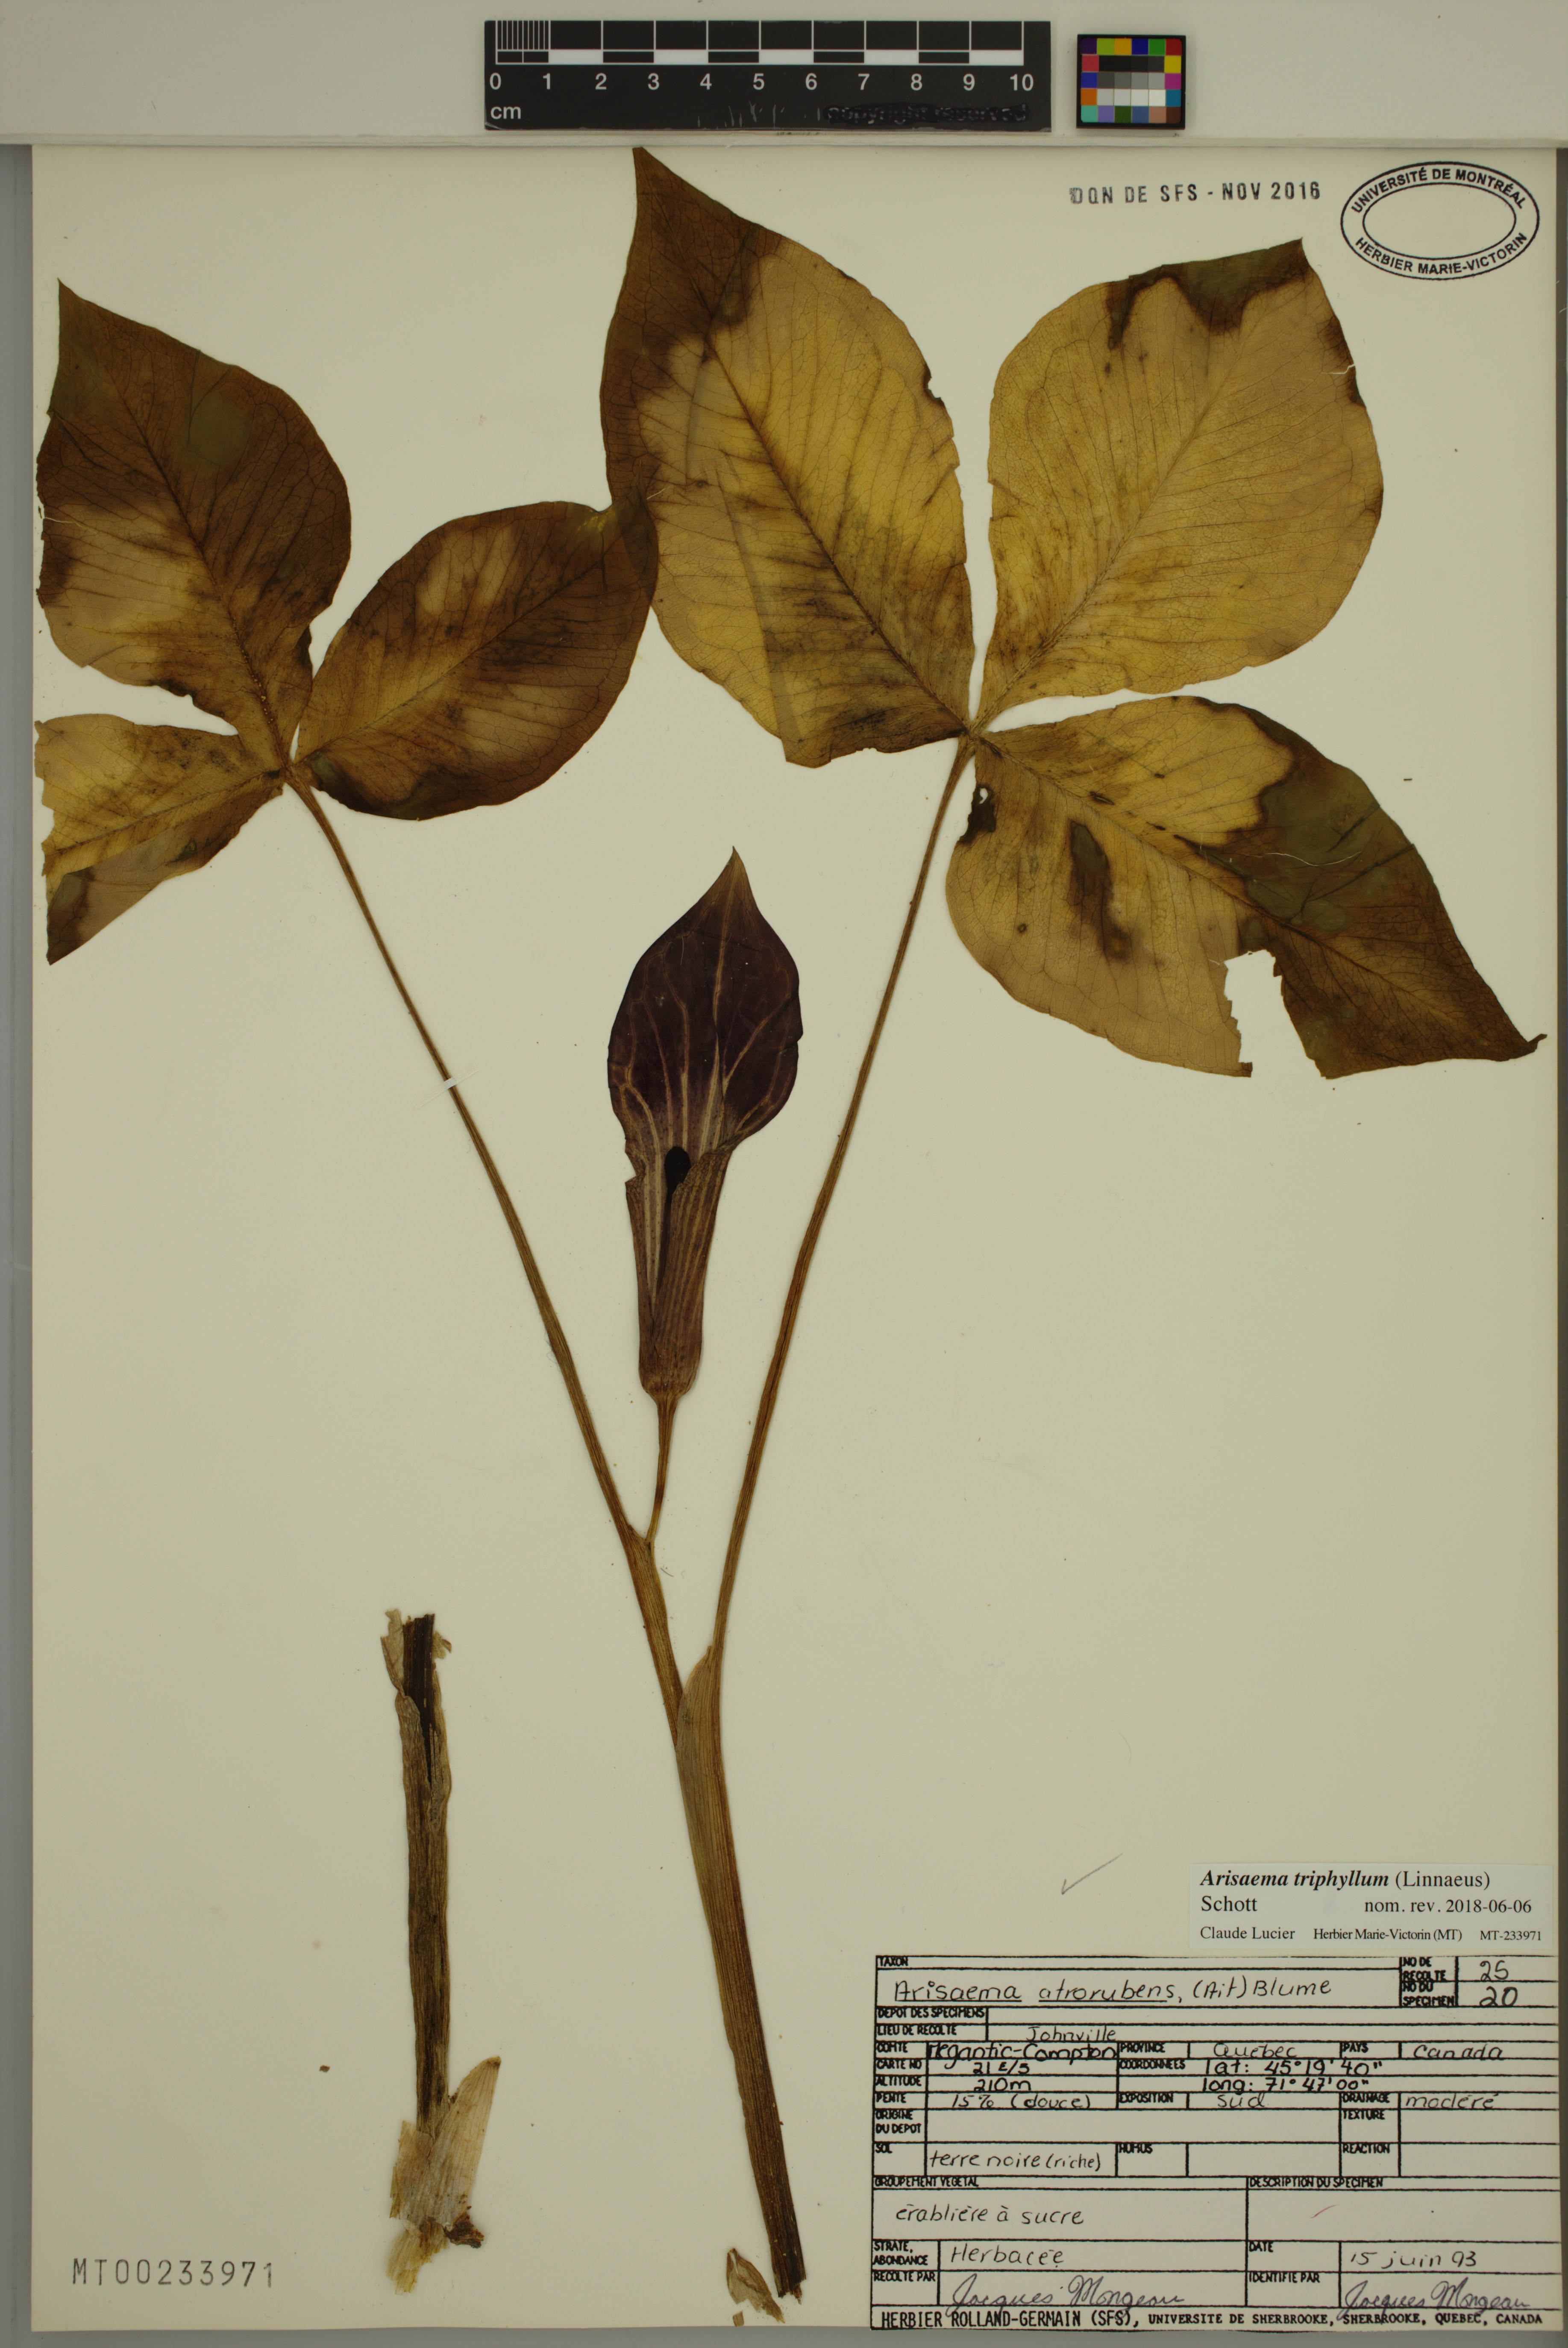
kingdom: Plantae
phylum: Tracheophyta
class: Liliopsida
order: Alismatales
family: Araceae
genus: Arisaema
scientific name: Arisaema triphyllum
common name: Jack-in-the-pulpit
